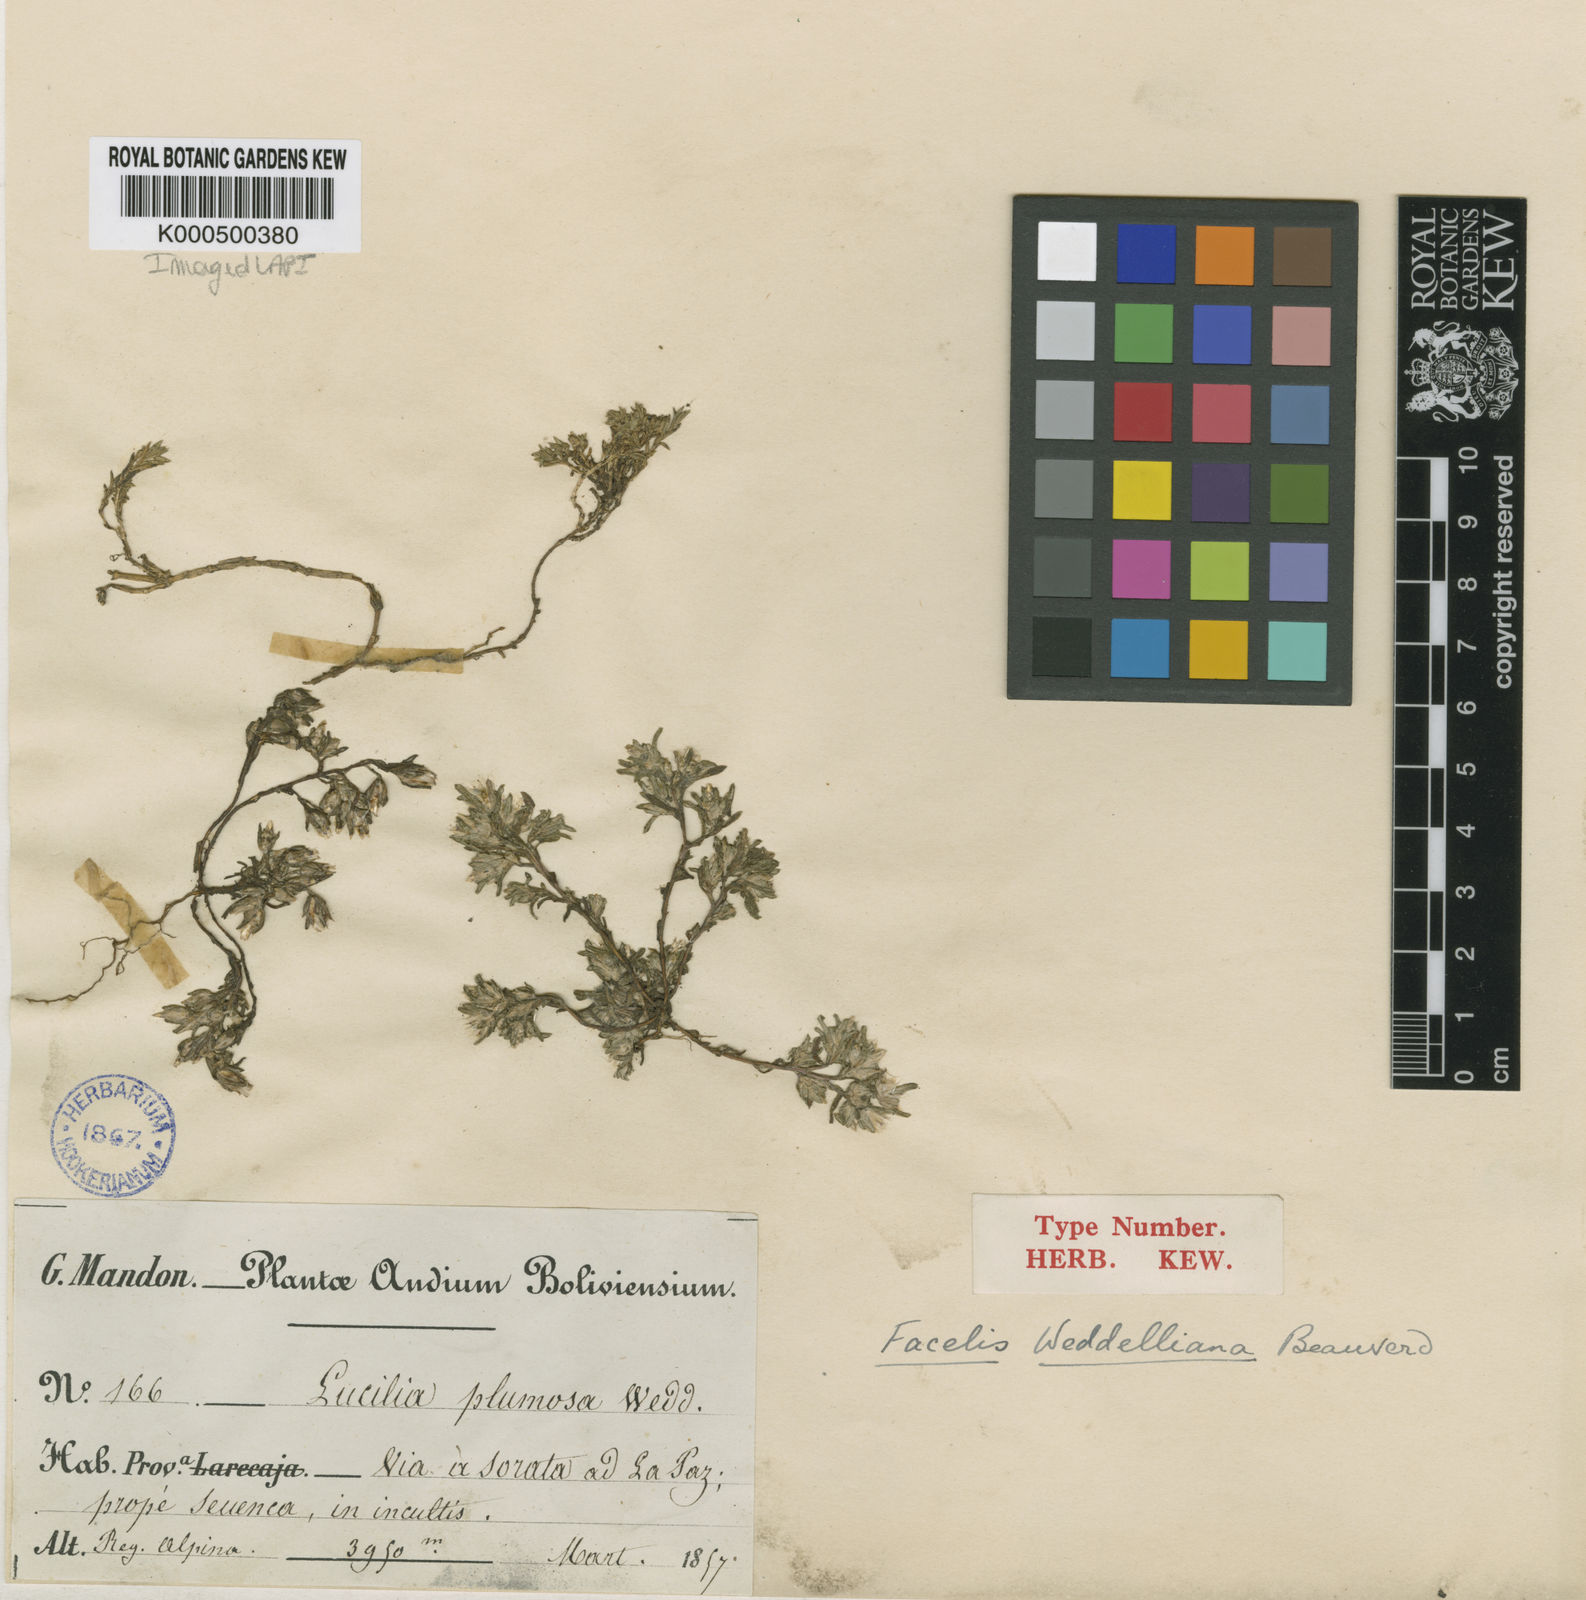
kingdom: Plantae
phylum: Tracheophyta
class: Magnoliopsida
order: Asterales
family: Asteraceae
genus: Facelis
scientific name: Facelis plumosa
